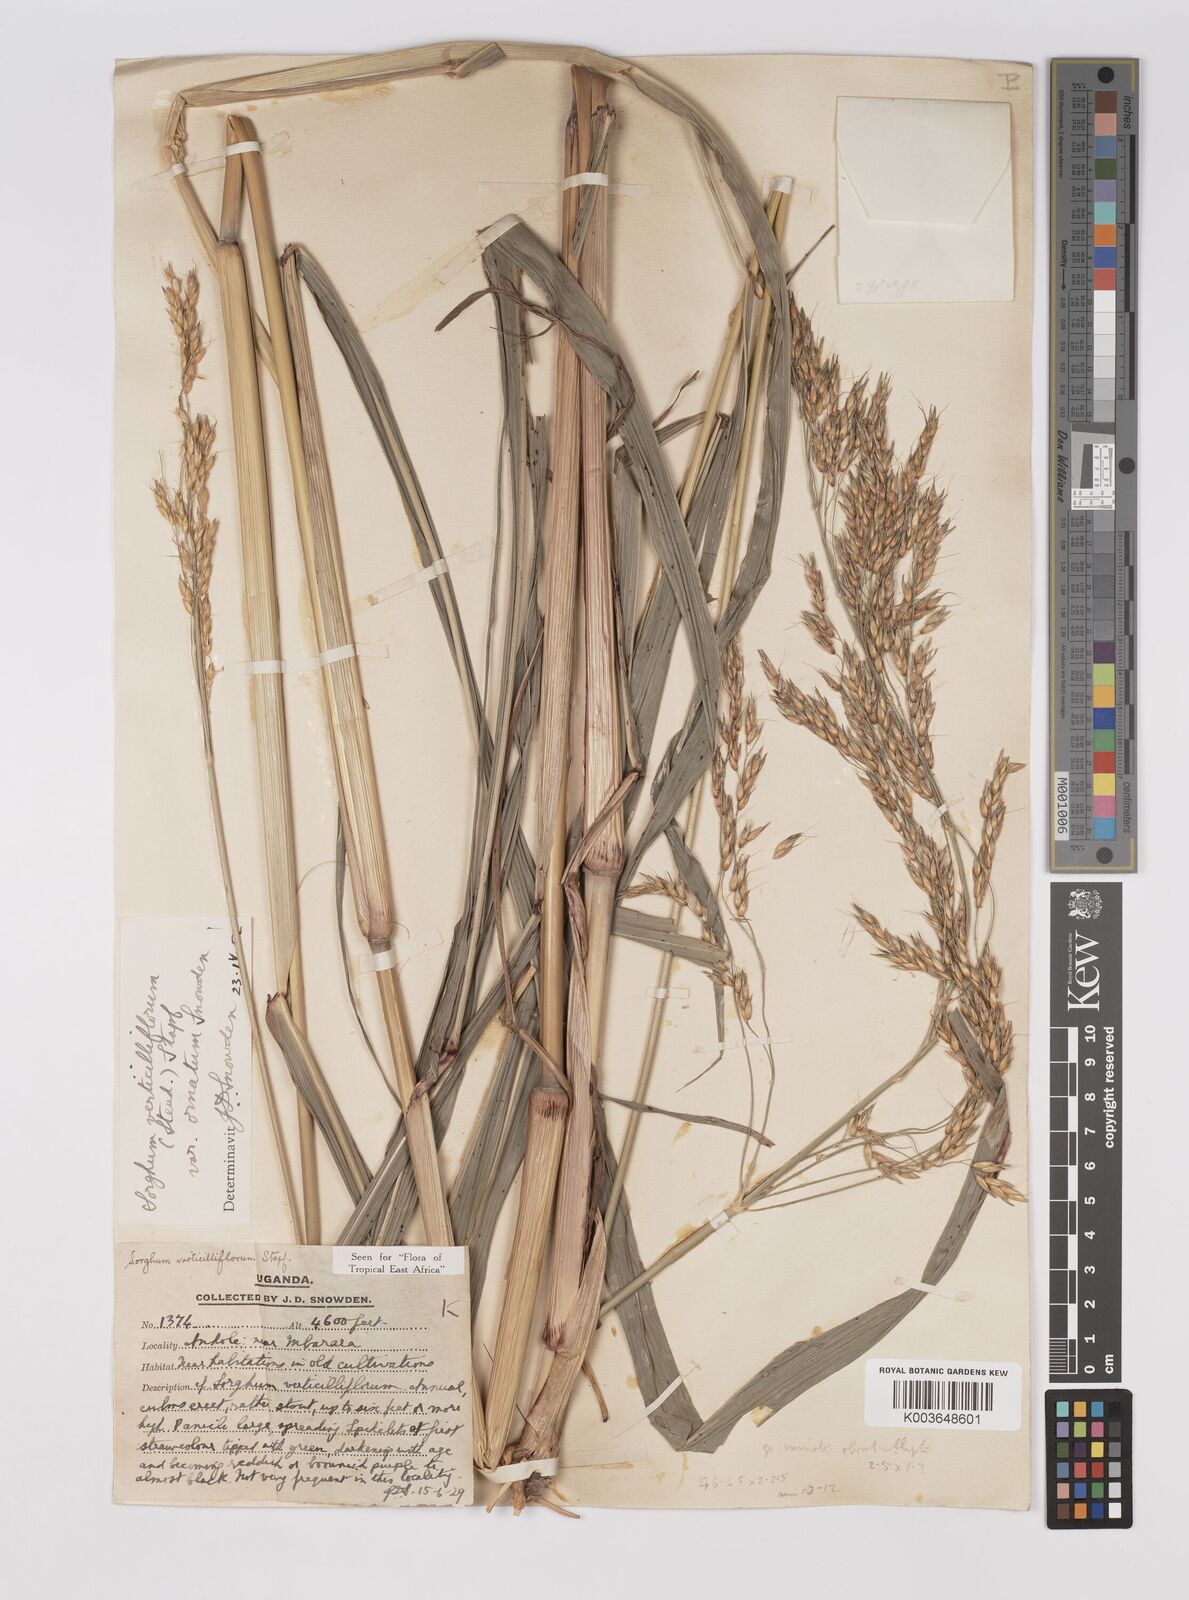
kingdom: Plantae
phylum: Tracheophyta
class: Liliopsida
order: Poales
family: Poaceae
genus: Sorghum
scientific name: Sorghum arundinaceum
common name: Sorghum
